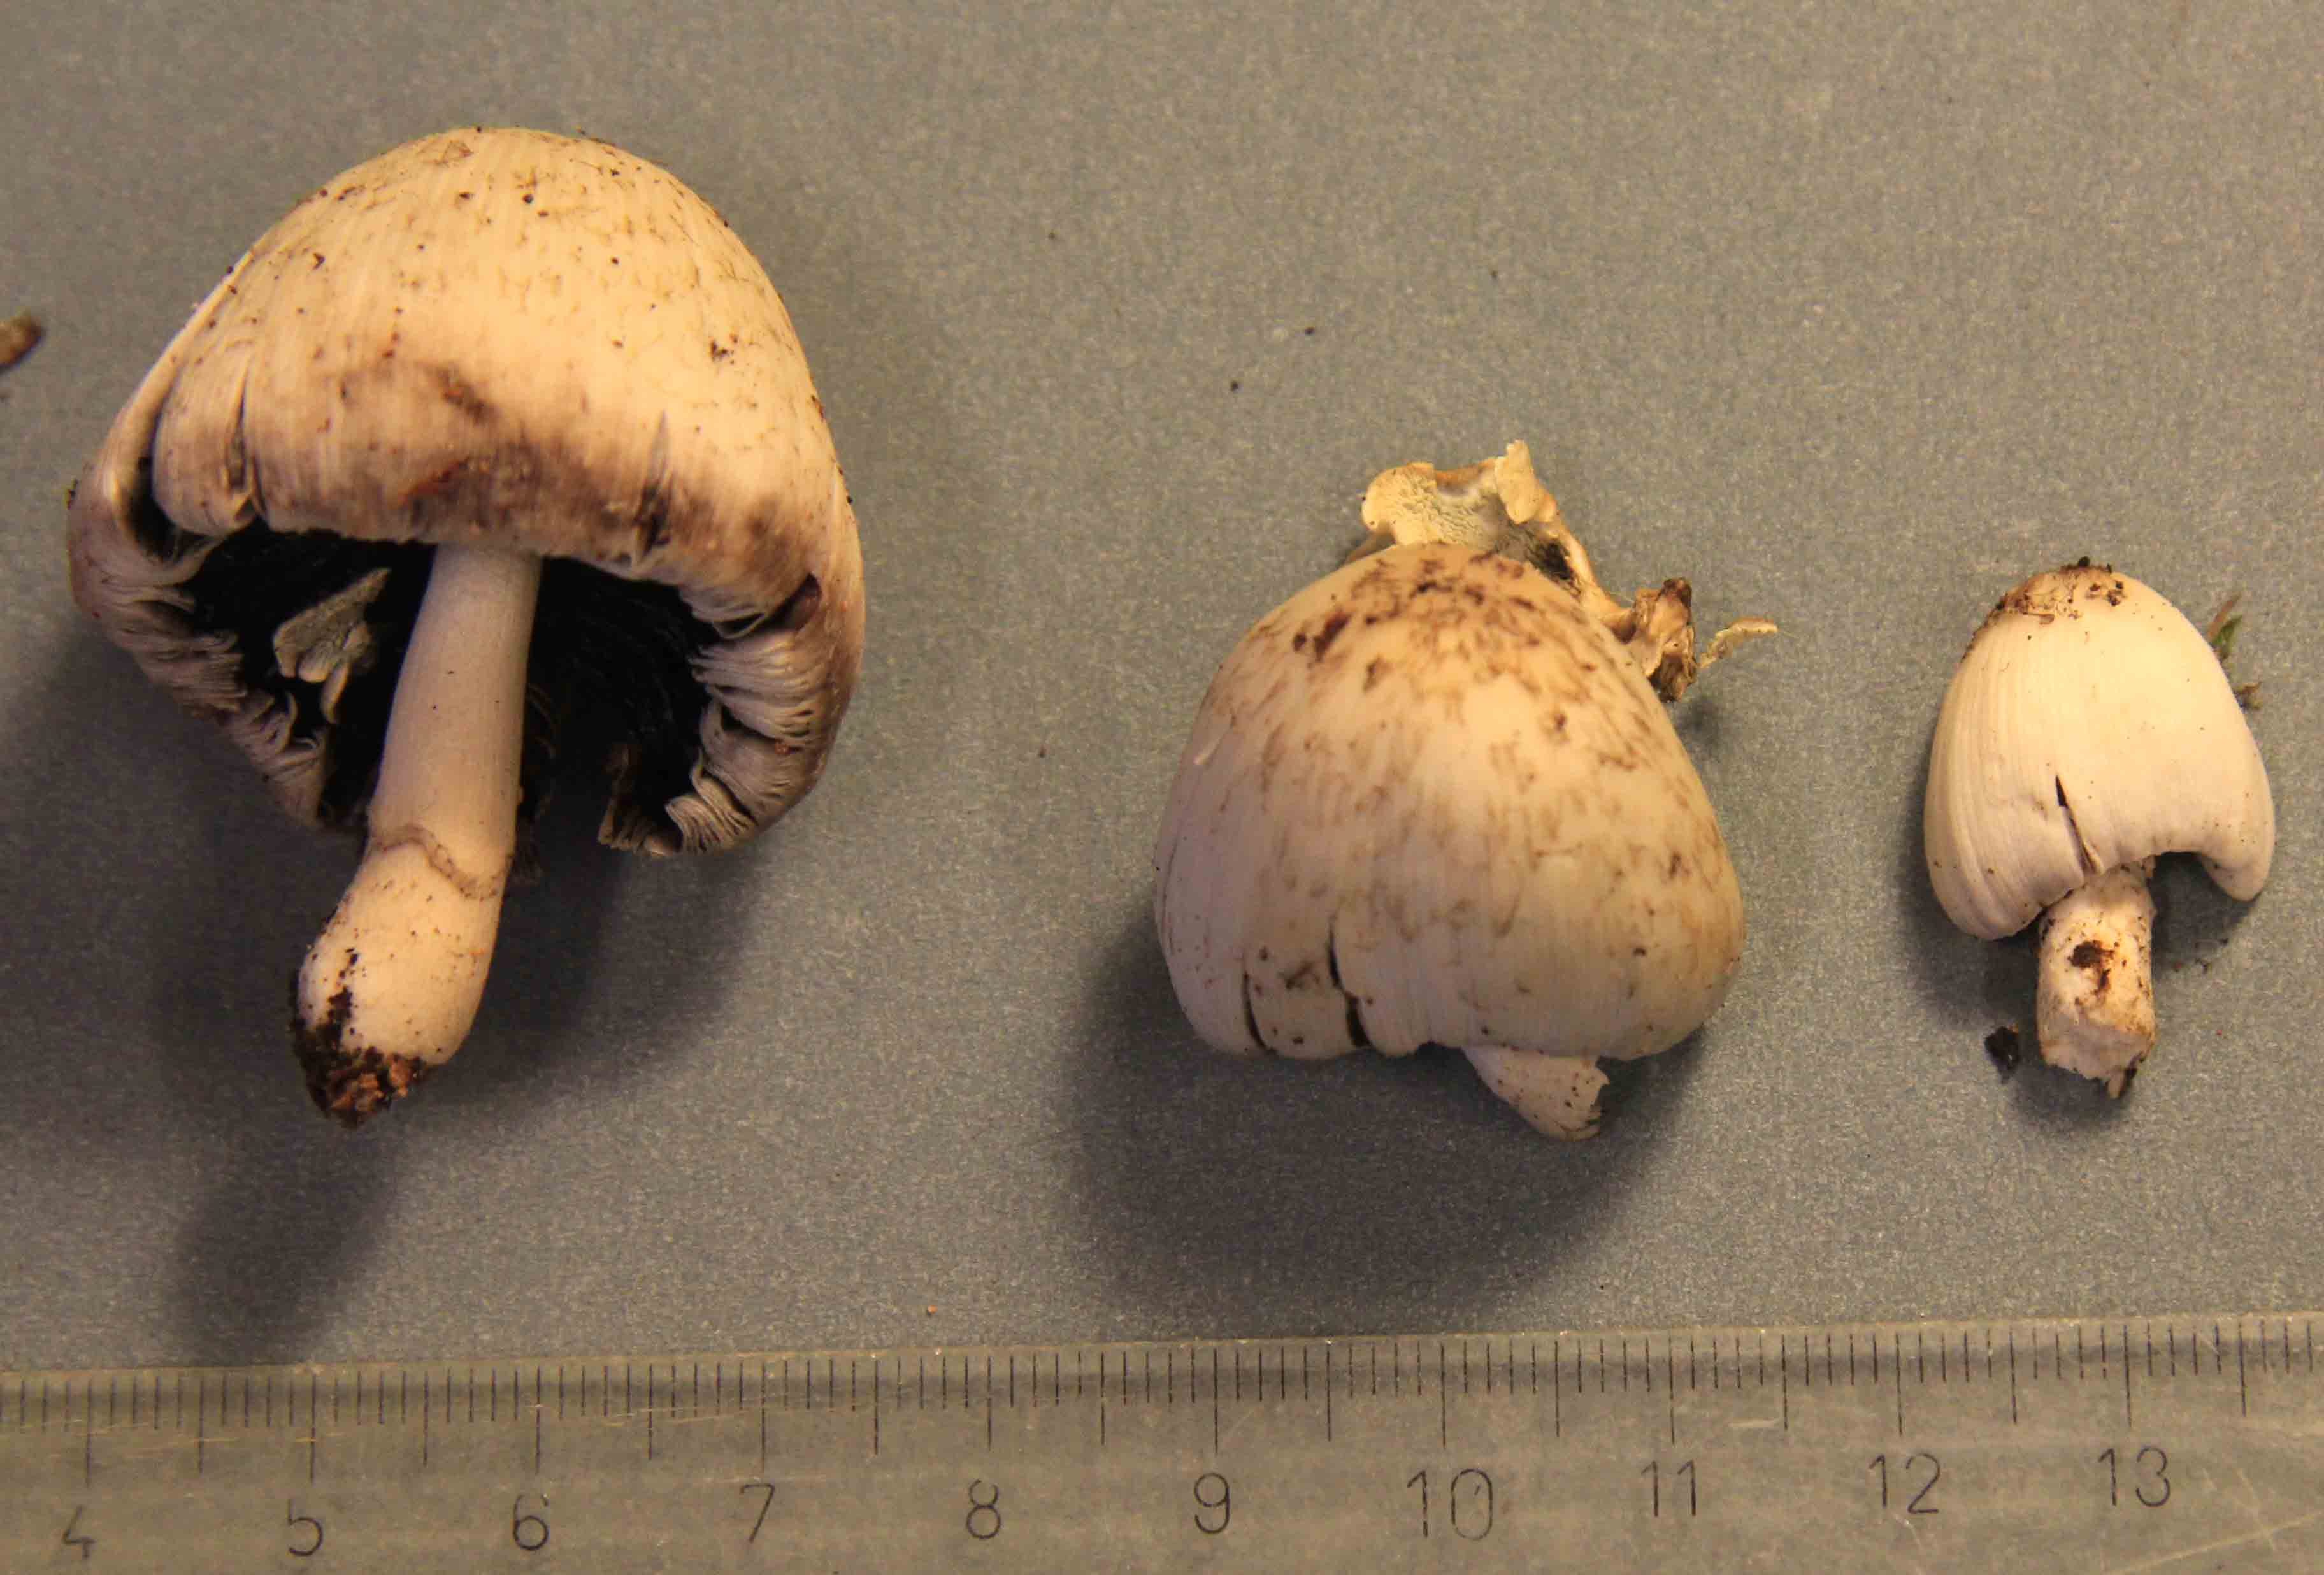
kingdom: Fungi
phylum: Basidiomycota
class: Agaricomycetes
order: Agaricales
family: Psathyrellaceae
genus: Coprinopsis
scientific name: Coprinopsis mitrispora
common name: hul-blækhat
